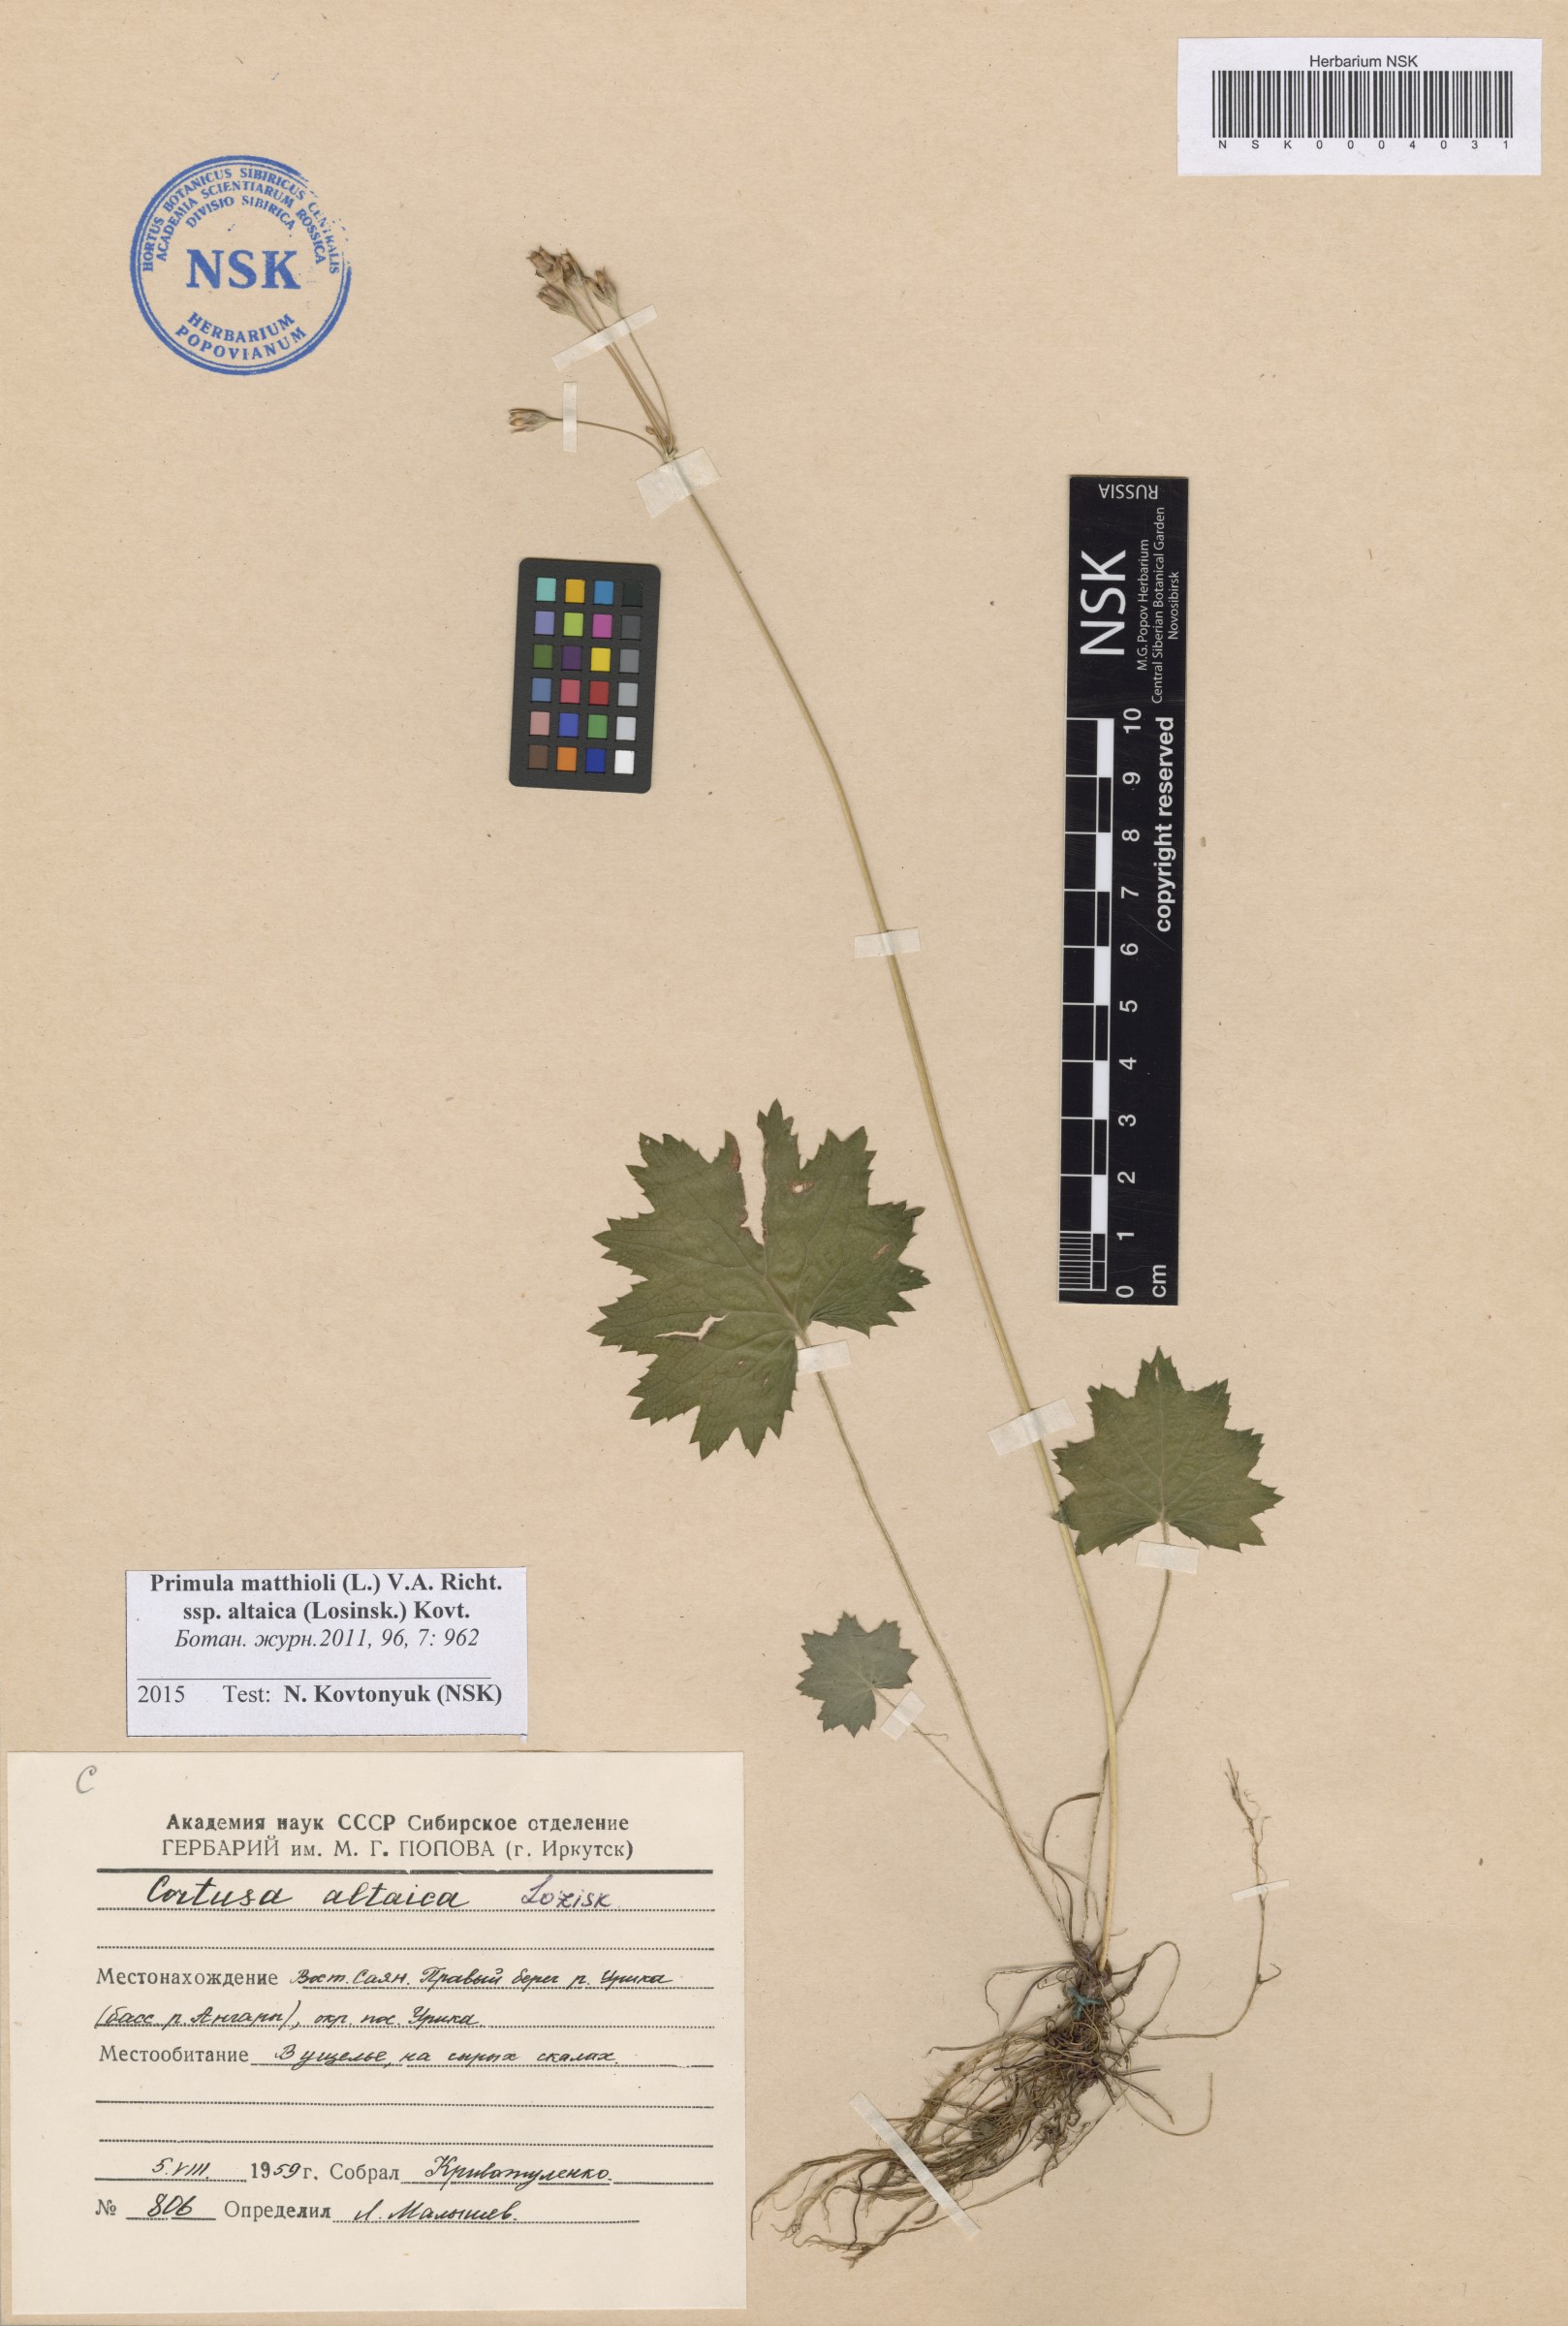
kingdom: Plantae
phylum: Tracheophyta
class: Magnoliopsida
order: Ericales
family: Primulaceae
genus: Primula
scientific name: Primula matthioli
